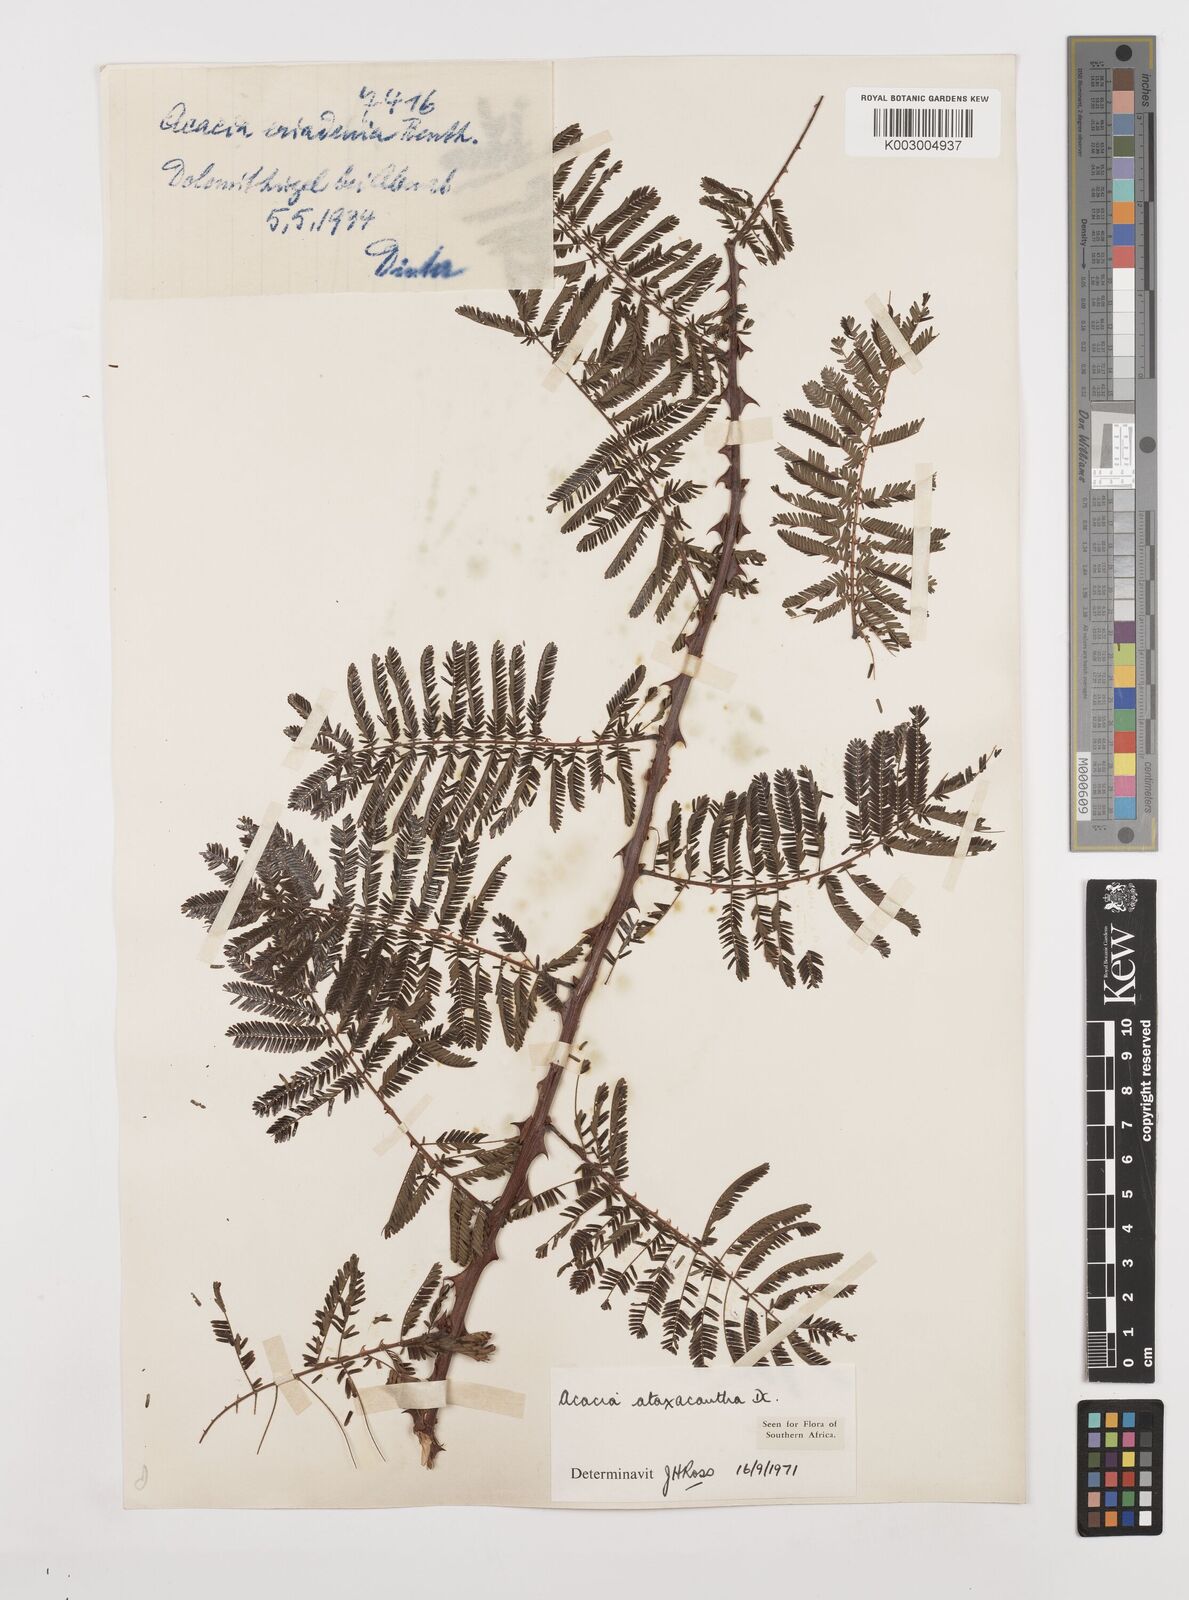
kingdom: Plantae
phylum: Tracheophyta
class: Magnoliopsida
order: Fabales
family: Fabaceae
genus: Senegalia
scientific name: Senegalia ataxacantha
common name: Flame acacia
